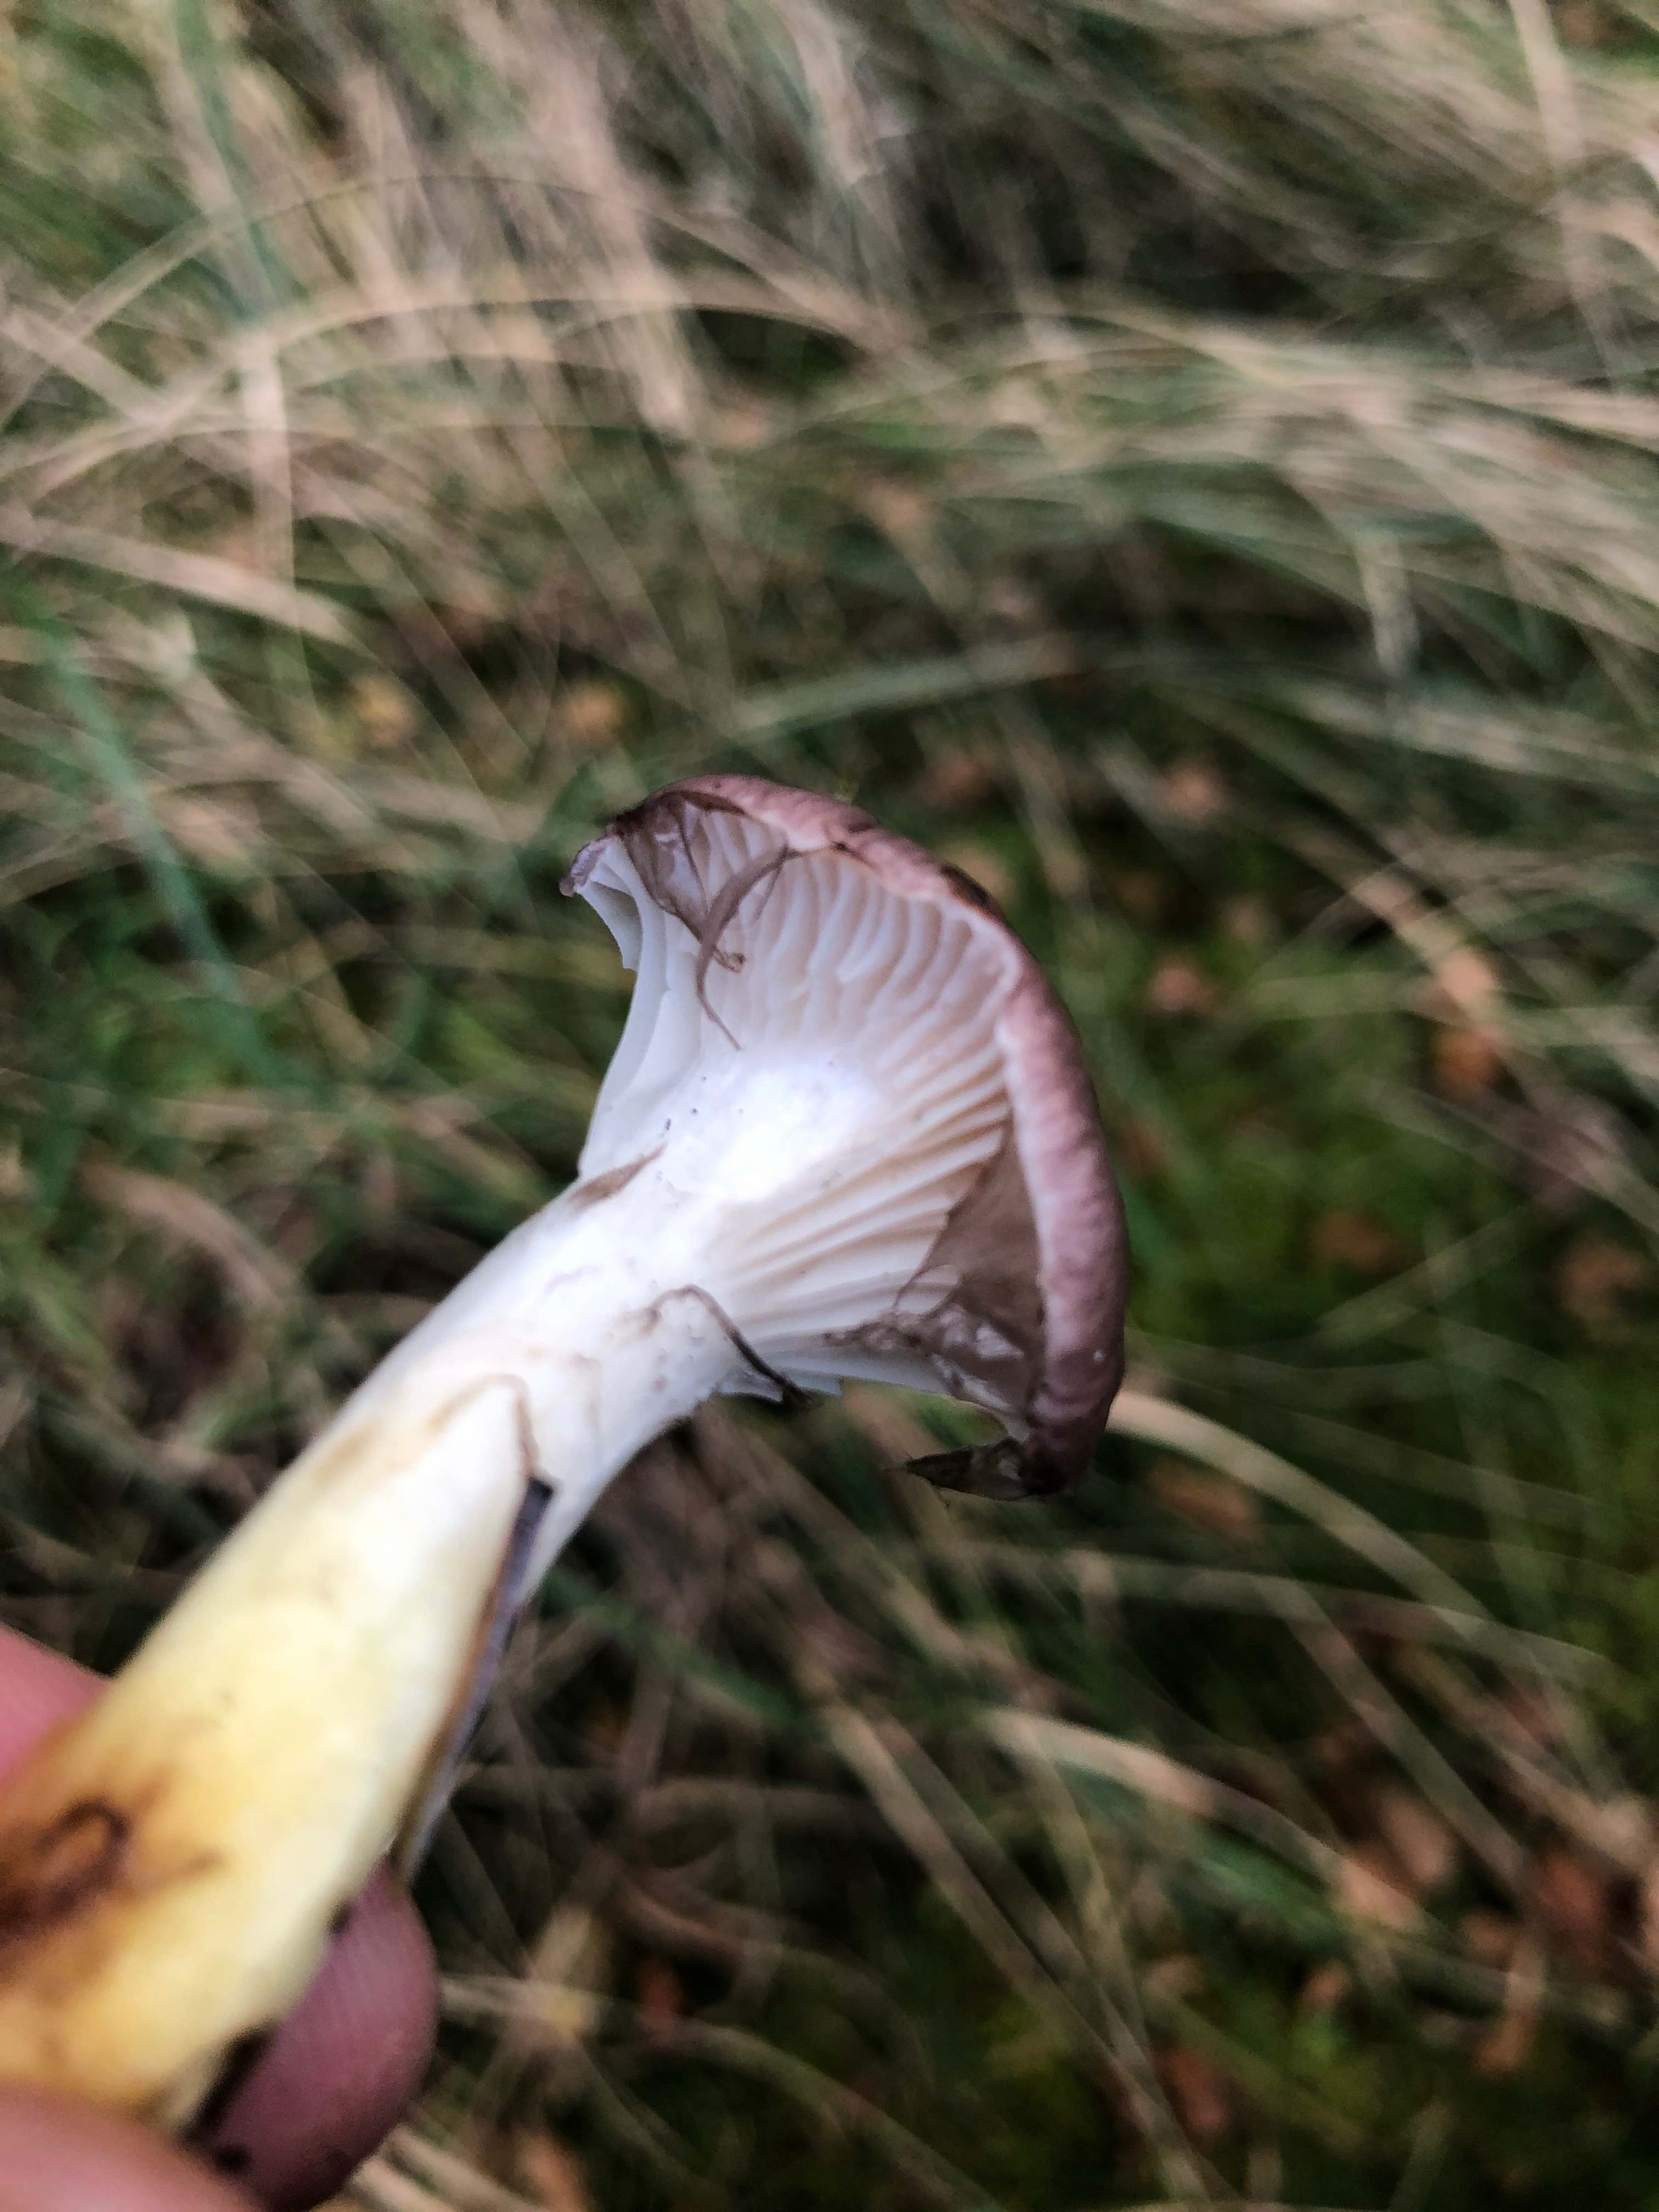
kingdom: Fungi
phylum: Basidiomycota
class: Agaricomycetes
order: Boletales
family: Gomphidiaceae
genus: Gomphidius
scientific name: Gomphidius glutinosus
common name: grå slimslør
